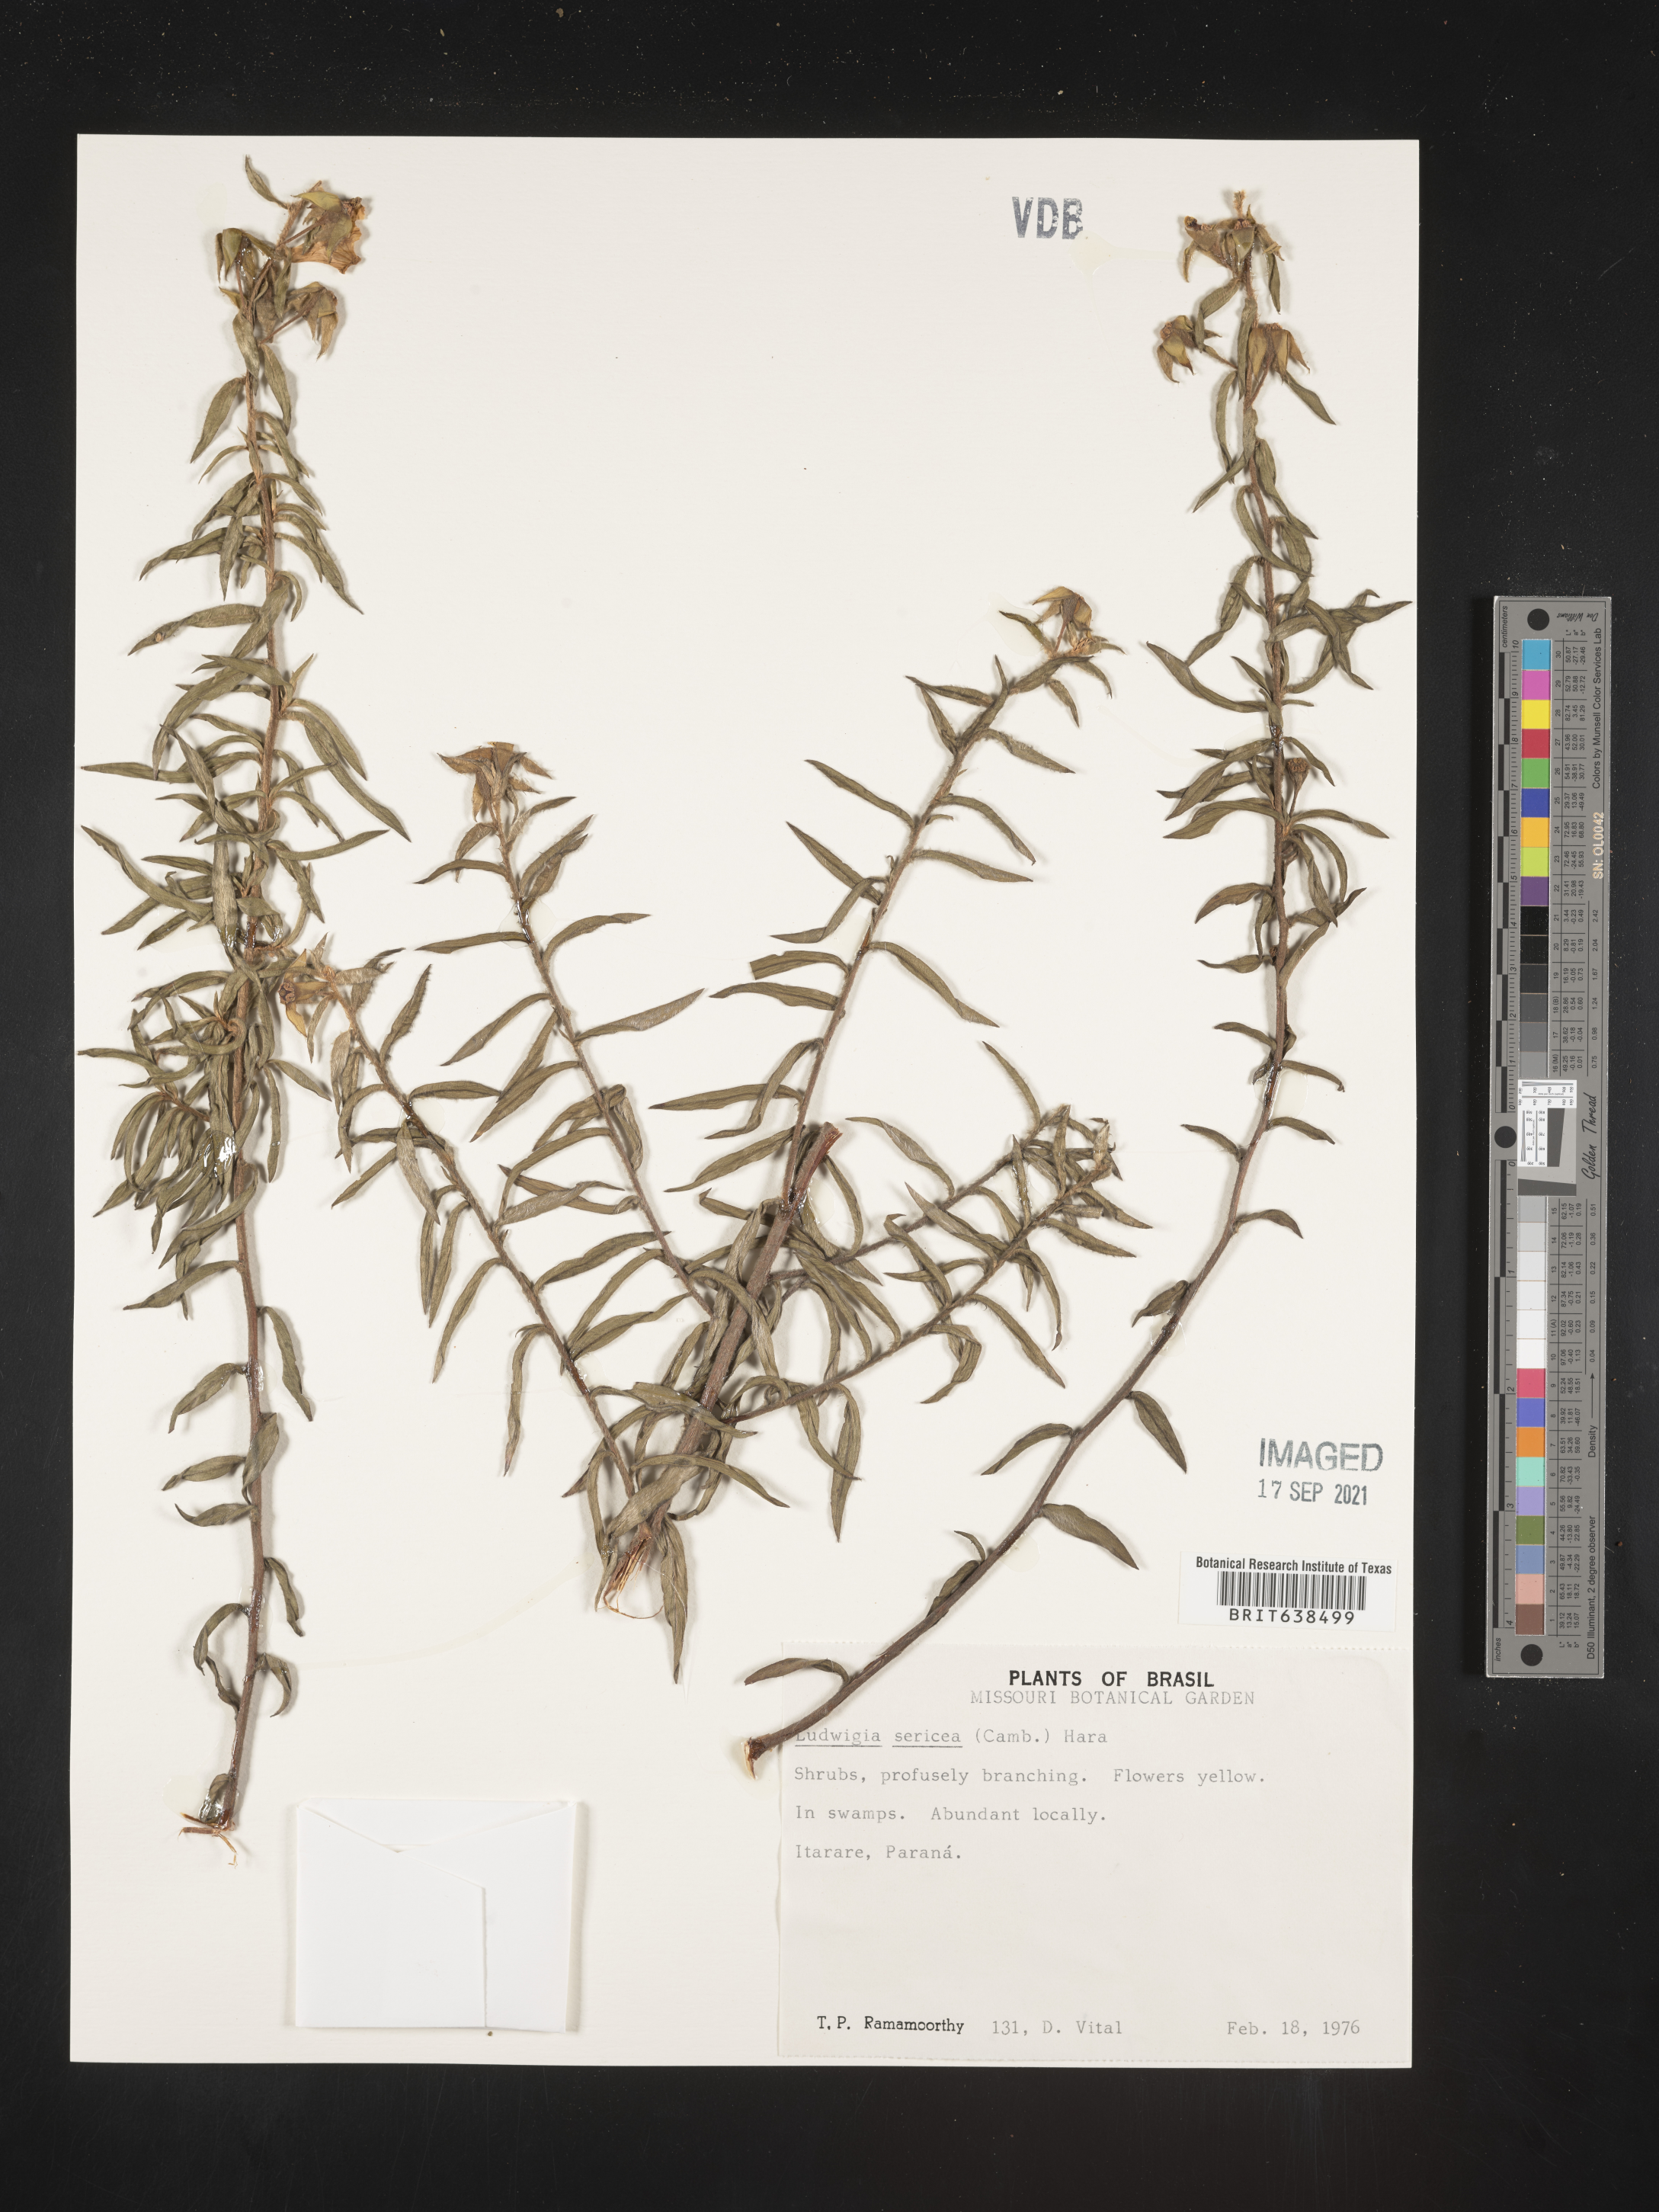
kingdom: Plantae
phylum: Tracheophyta
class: Magnoliopsida
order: Myrtales
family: Onagraceae
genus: Ludwigia
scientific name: Ludwigia
